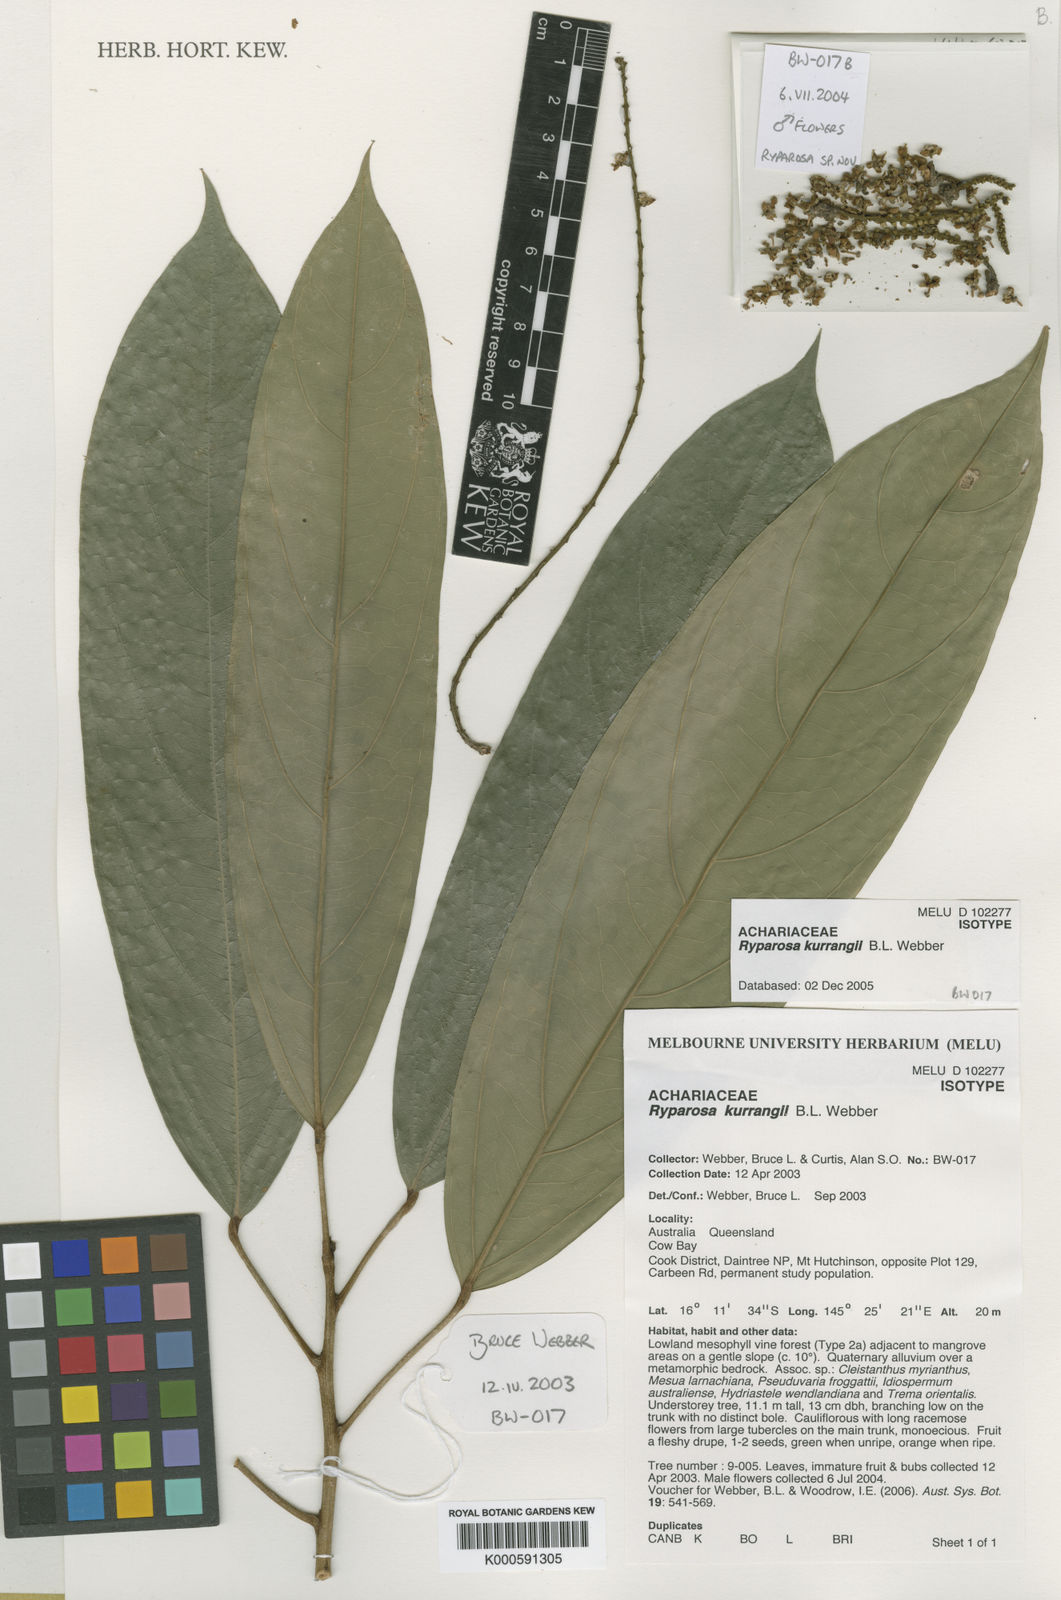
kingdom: Plantae
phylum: Tracheophyta
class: Magnoliopsida
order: Malpighiales
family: Achariaceae
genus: Ryparosa
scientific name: Ryparosa kurrangii
